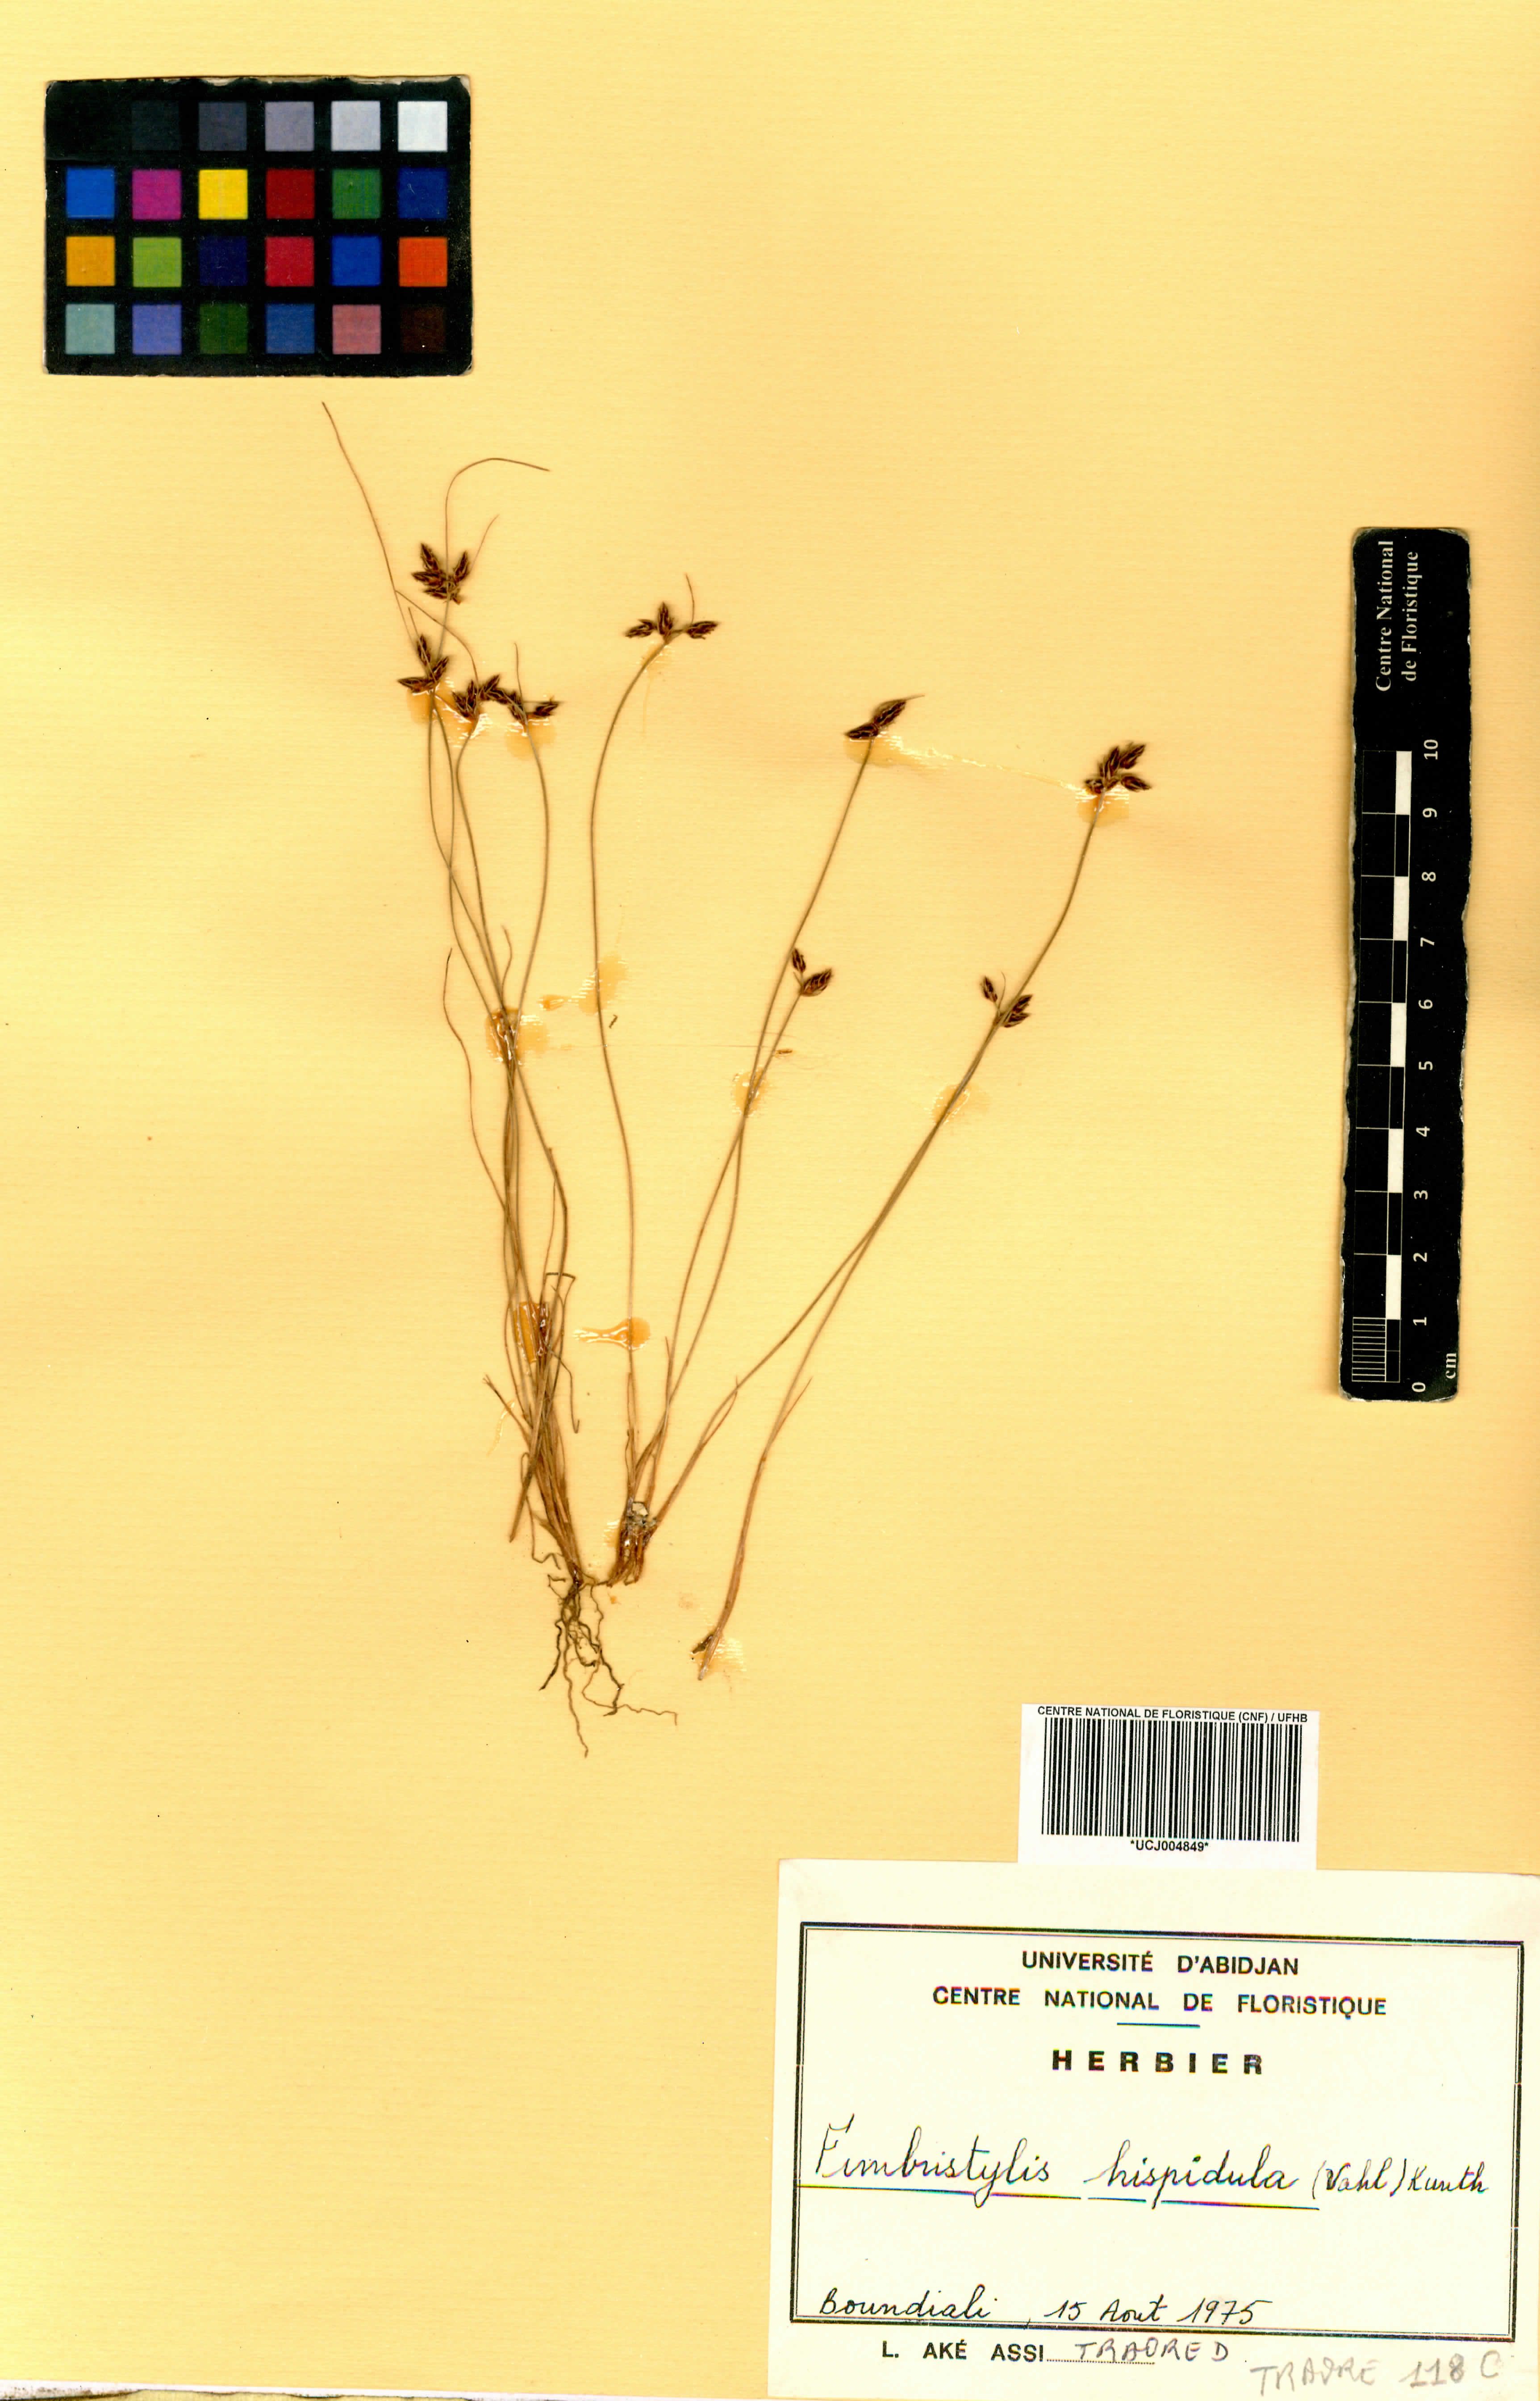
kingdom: Plantae
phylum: Tracheophyta
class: Liliopsida
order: Poales
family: Cyperaceae
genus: Bulbostylis
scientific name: Bulbostylis hispidula
